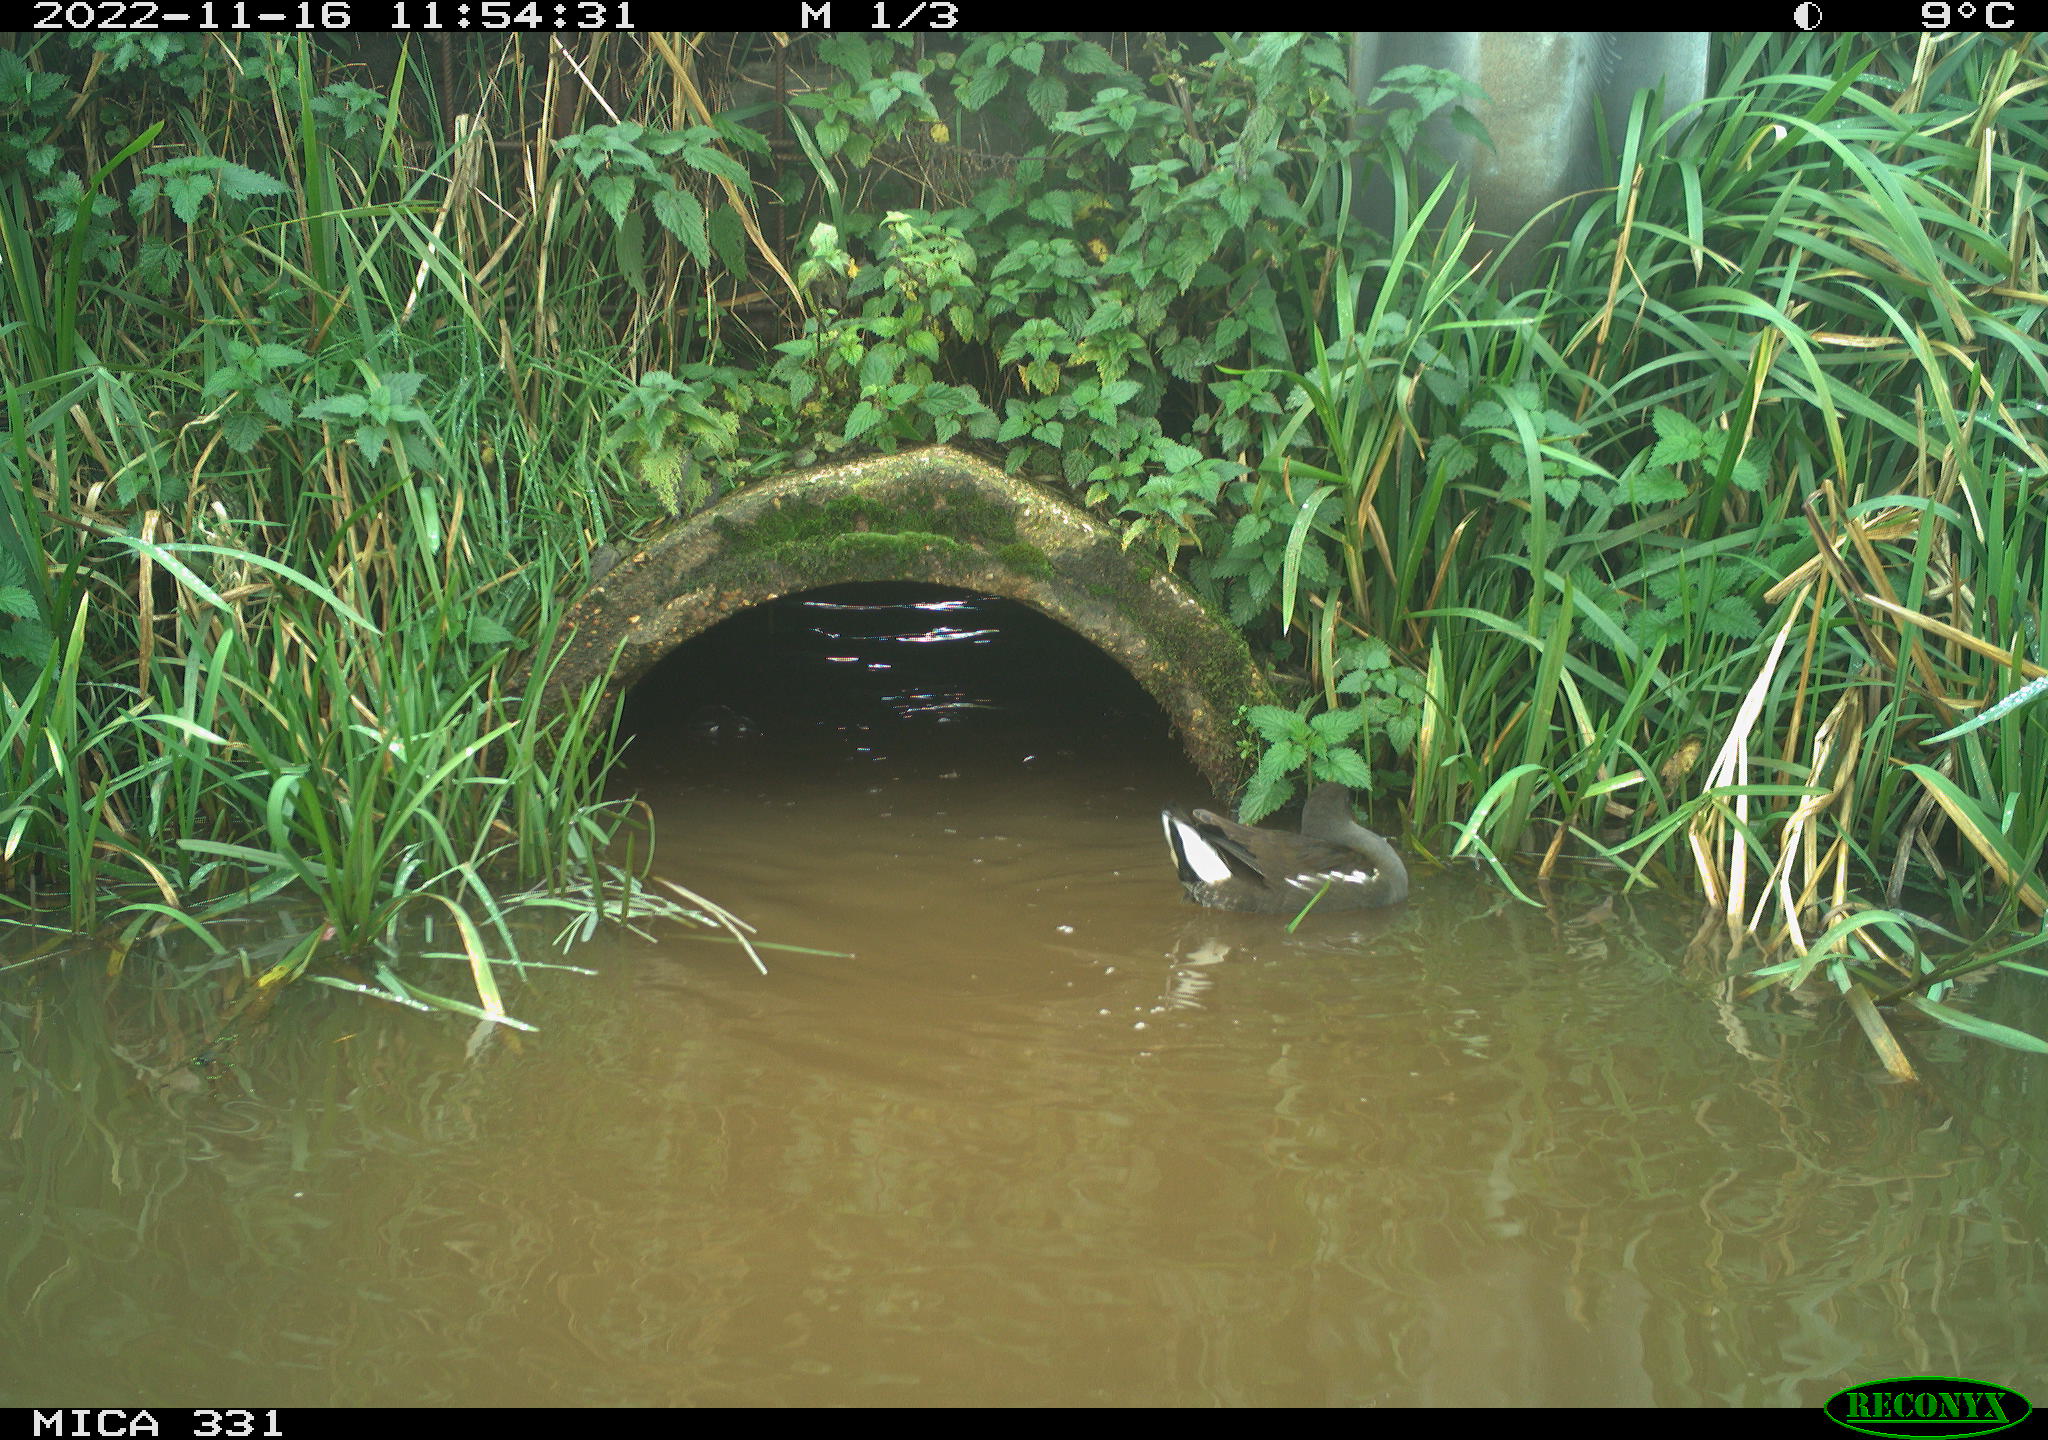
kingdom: Animalia
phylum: Chordata
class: Aves
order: Gruiformes
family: Rallidae
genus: Gallinula
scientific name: Gallinula chloropus
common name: Common moorhen
